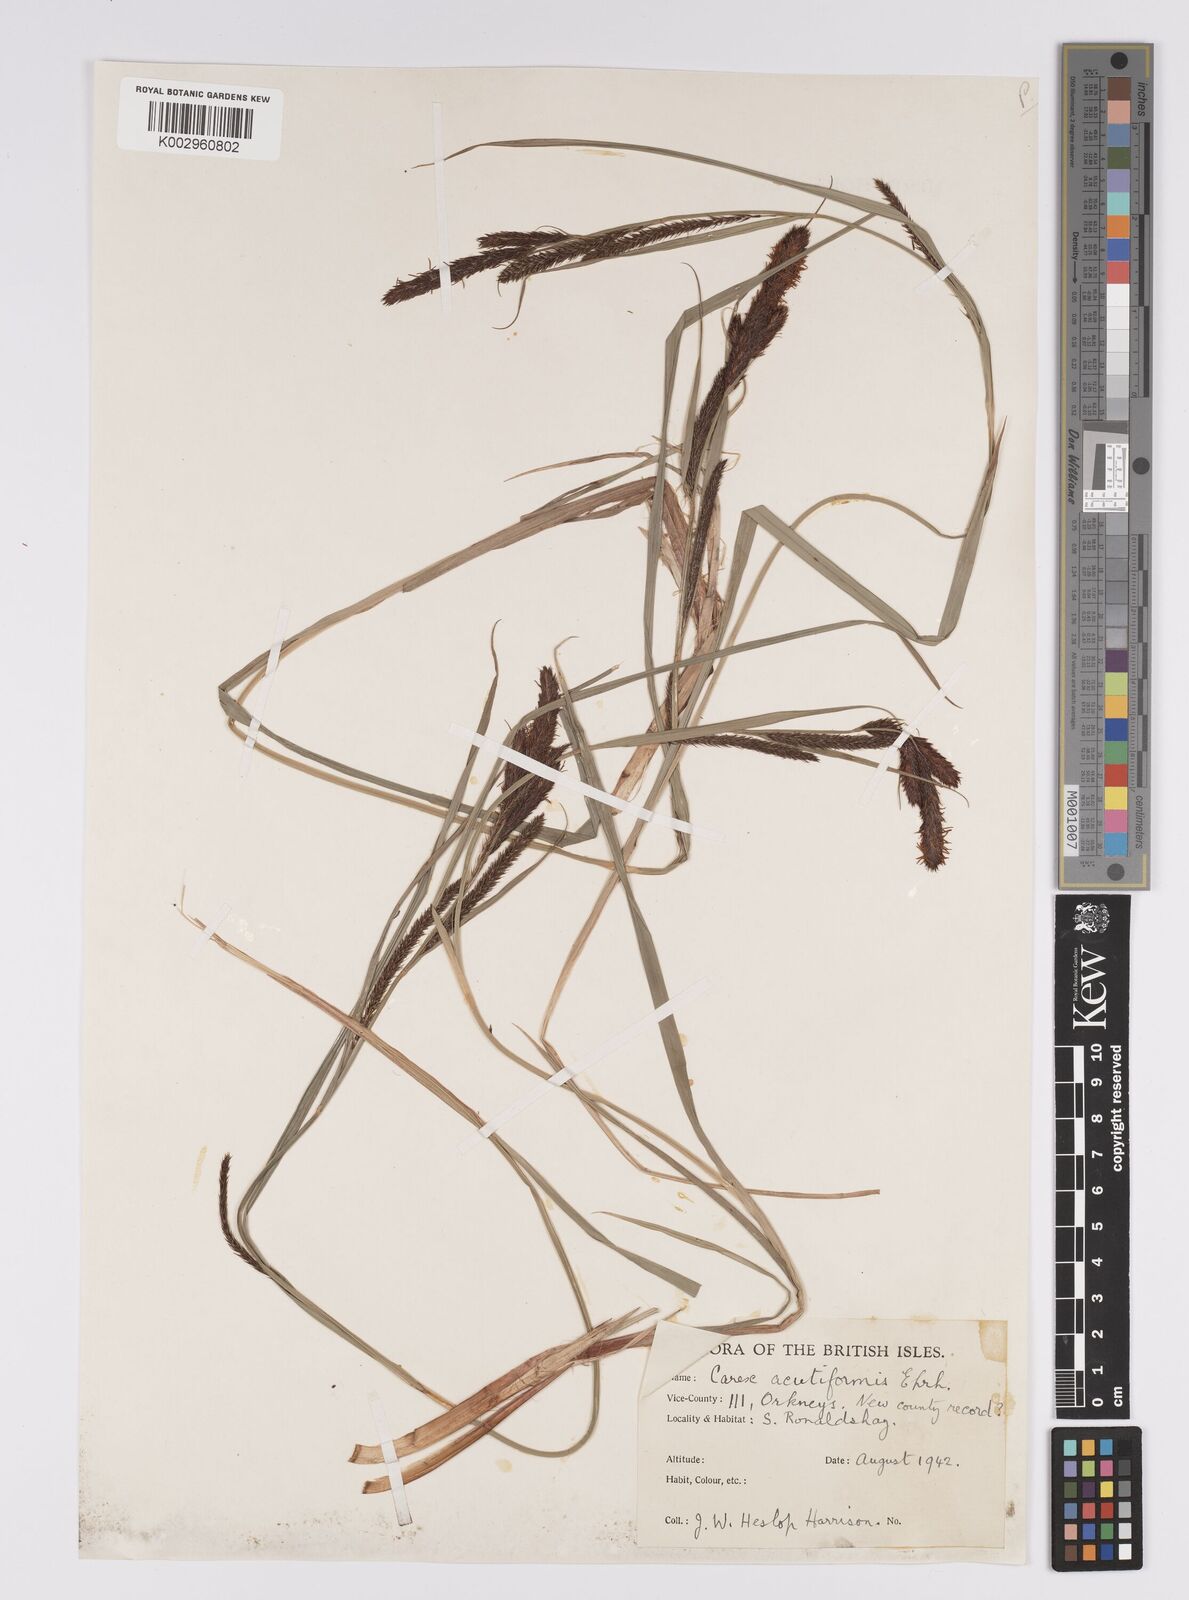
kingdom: Plantae
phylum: Tracheophyta
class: Liliopsida
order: Poales
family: Cyperaceae
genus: Carex
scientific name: Carex acutiformis
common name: Lesser pond-sedge
